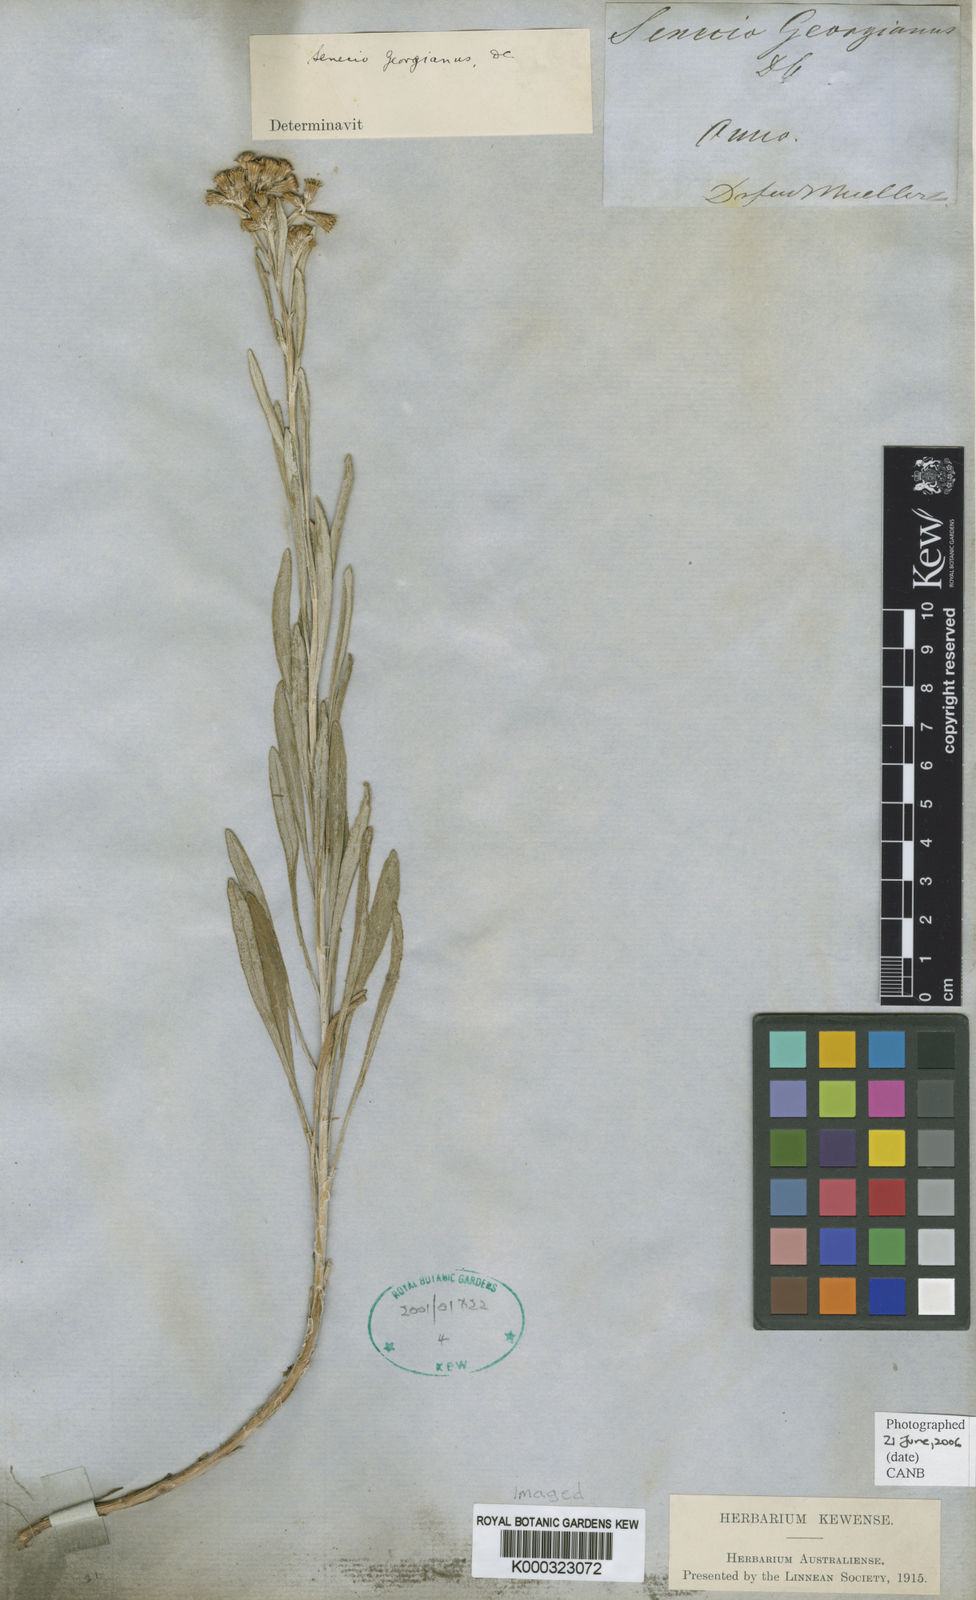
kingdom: Plantae
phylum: Tracheophyta
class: Magnoliopsida
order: Asterales
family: Asteraceae
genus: Senecio
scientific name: Senecio georgianus
